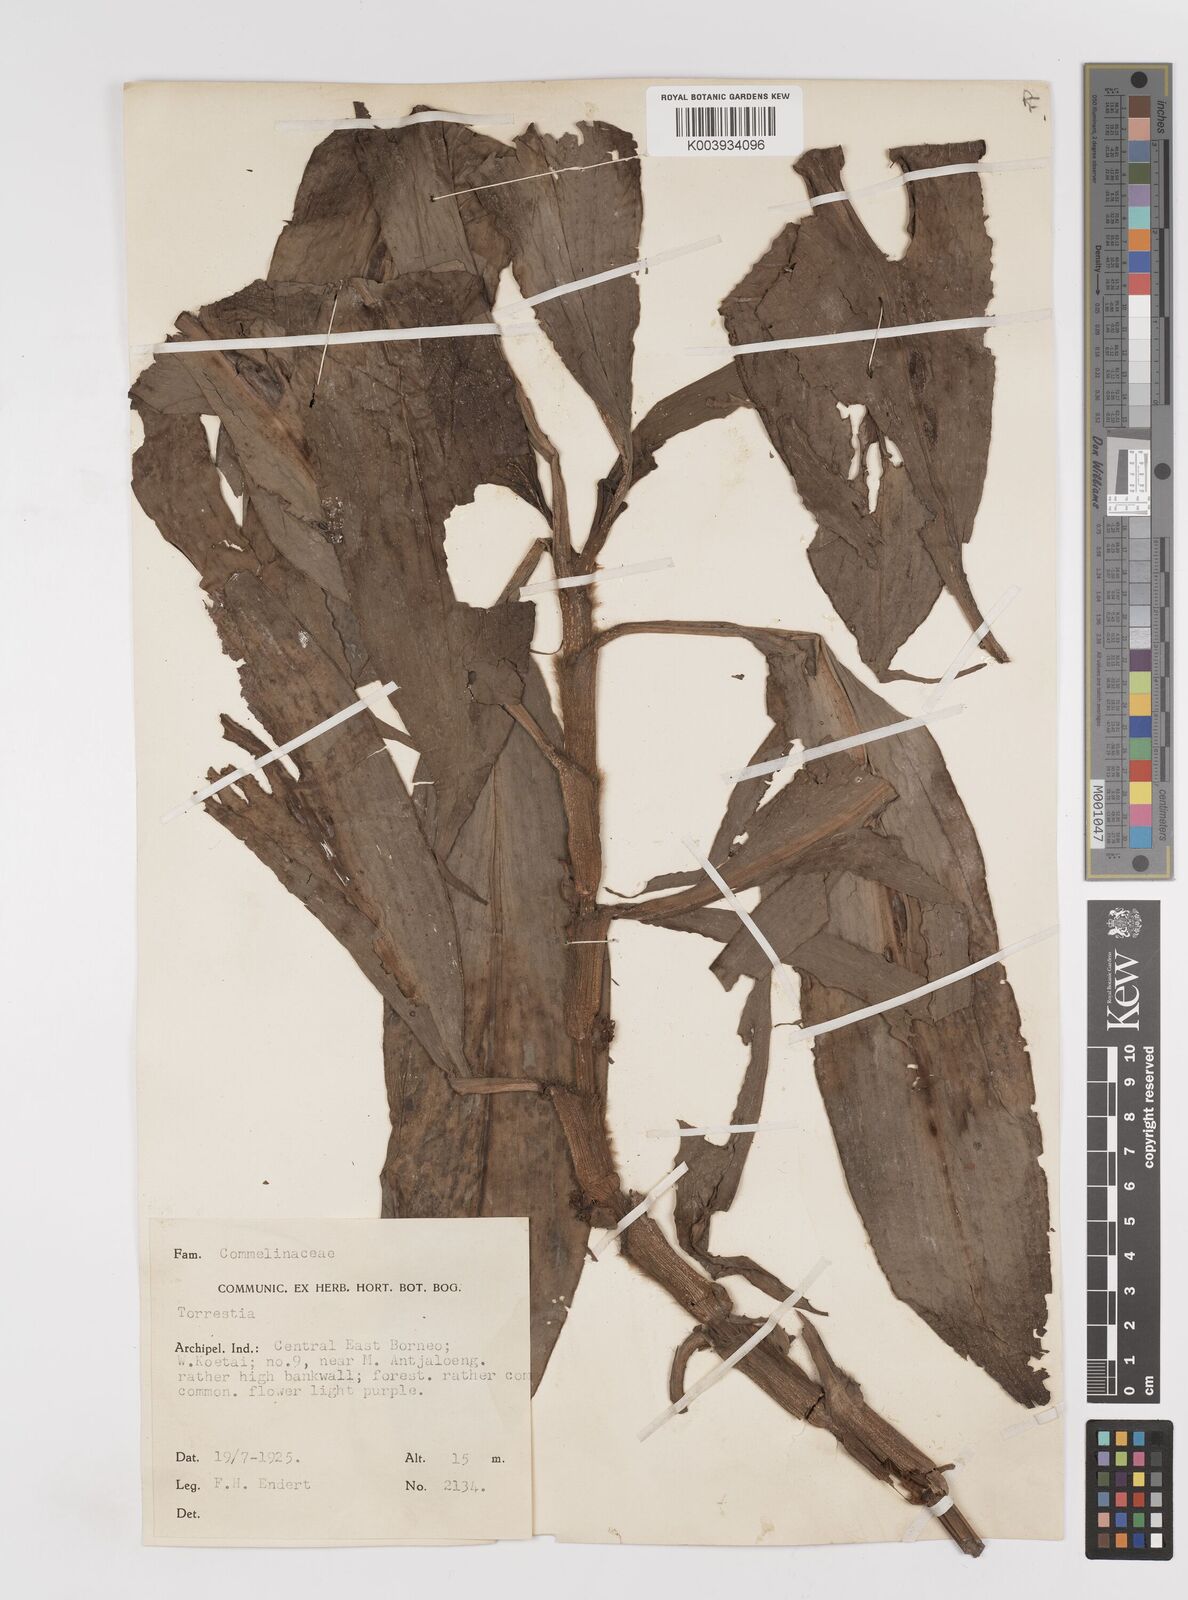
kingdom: Plantae
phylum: Tracheophyta
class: Liliopsida
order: Commelinales
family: Commelinaceae
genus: Amischotolype
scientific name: Amischotolype
